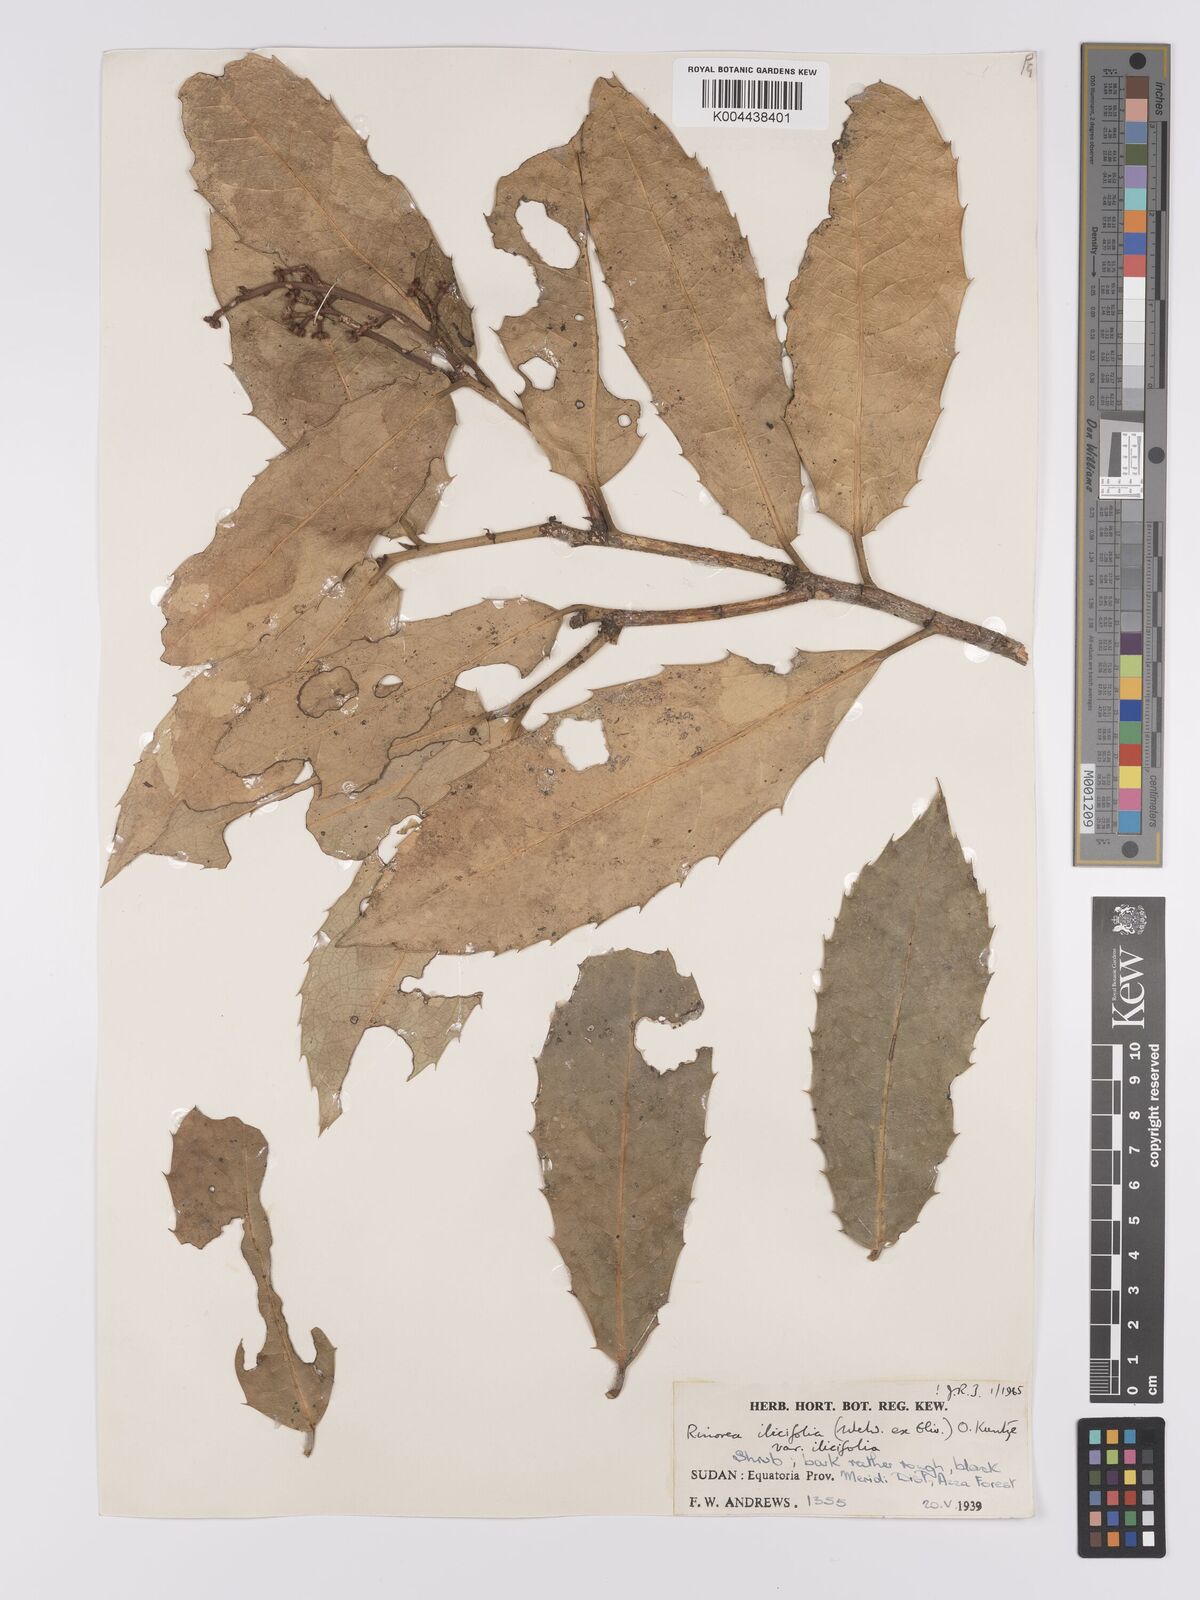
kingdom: Plantae
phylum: Tracheophyta
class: Magnoliopsida
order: Malpighiales
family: Violaceae
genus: Rinorea
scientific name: Rinorea ilicifolia
